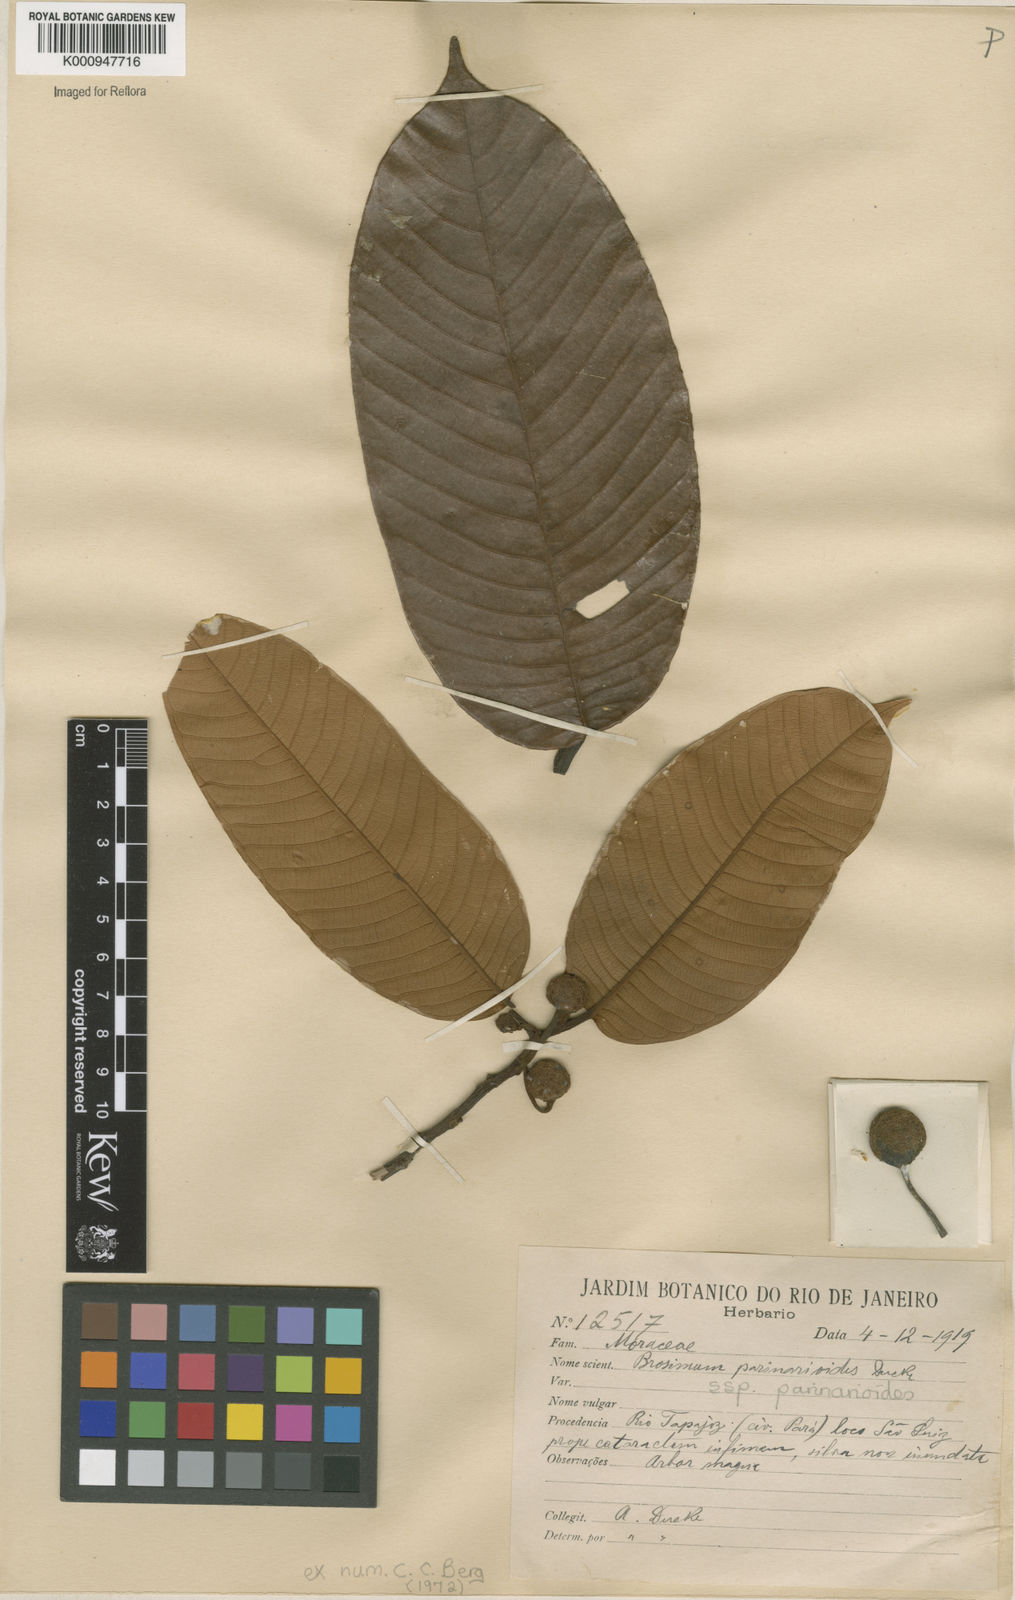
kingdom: Plantae
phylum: Tracheophyta
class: Magnoliopsida
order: Rosales
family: Moraceae
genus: Brosimum
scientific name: Brosimum parinarioides
